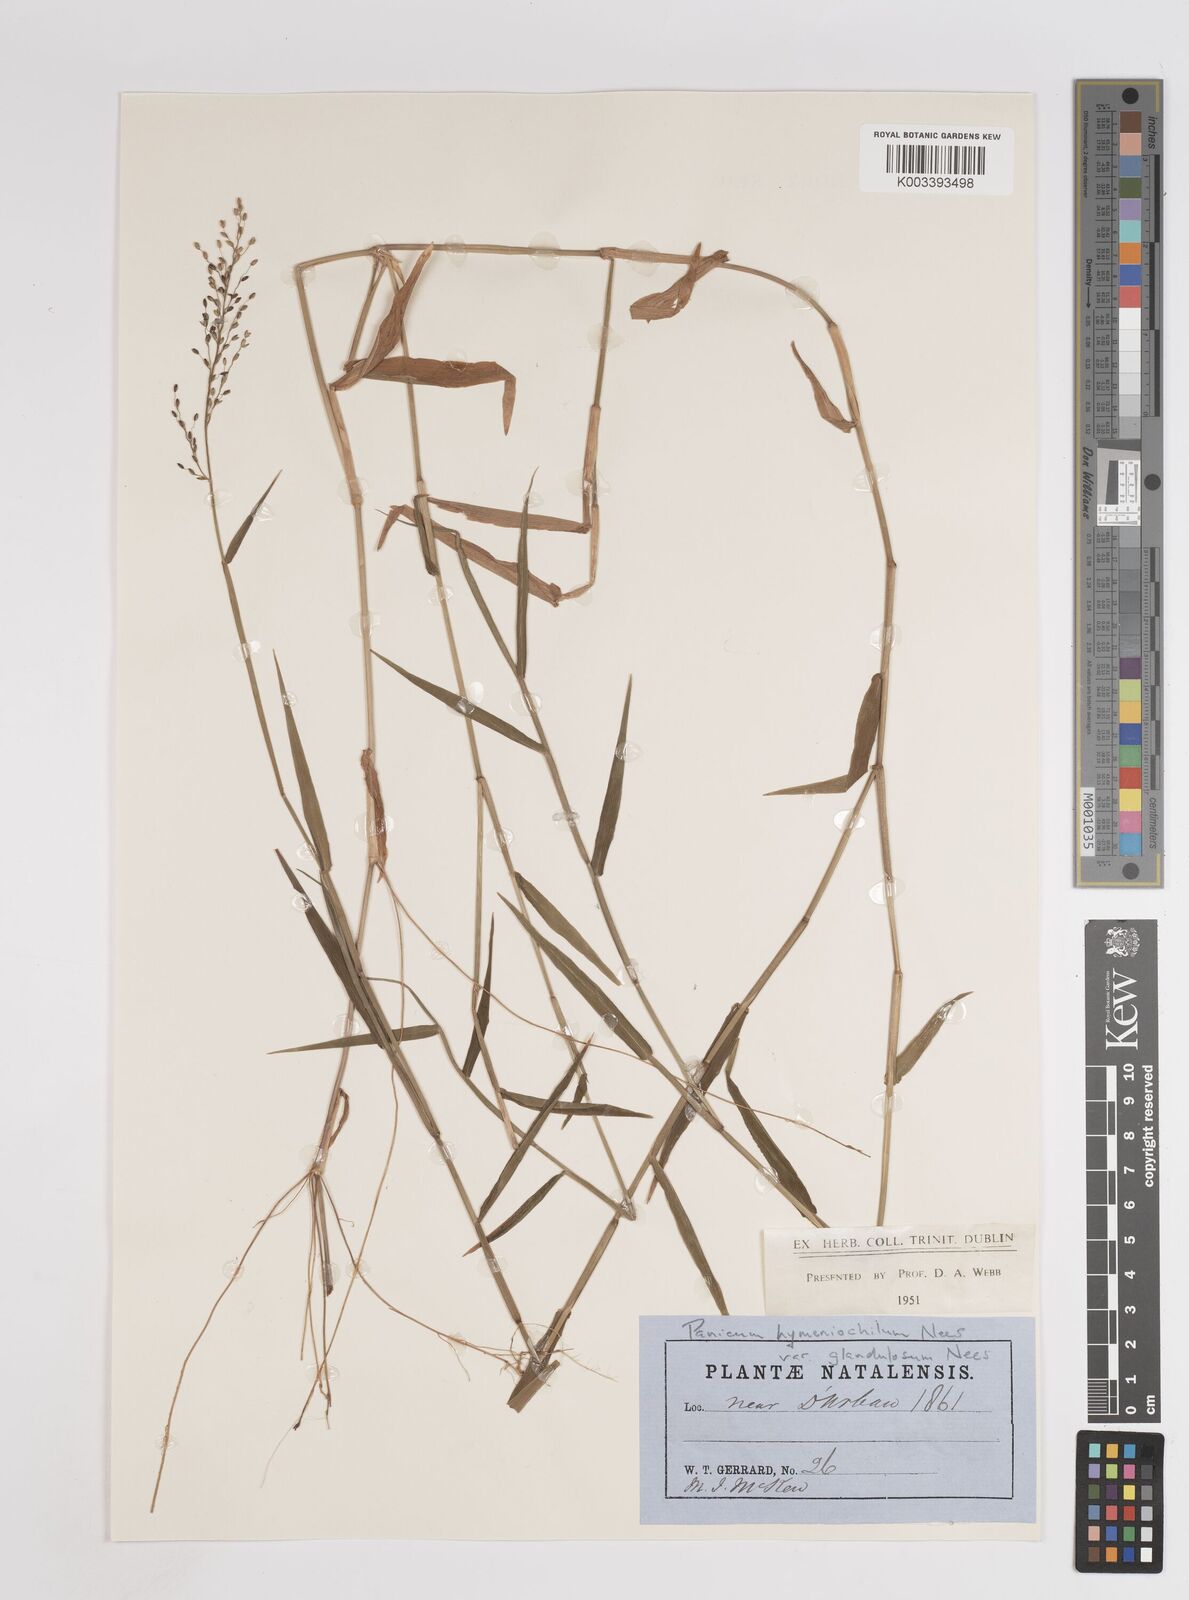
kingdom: Plantae
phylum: Tracheophyta
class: Liliopsida
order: Poales
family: Poaceae
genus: Adenochloa
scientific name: Adenochloa hymeniochila
